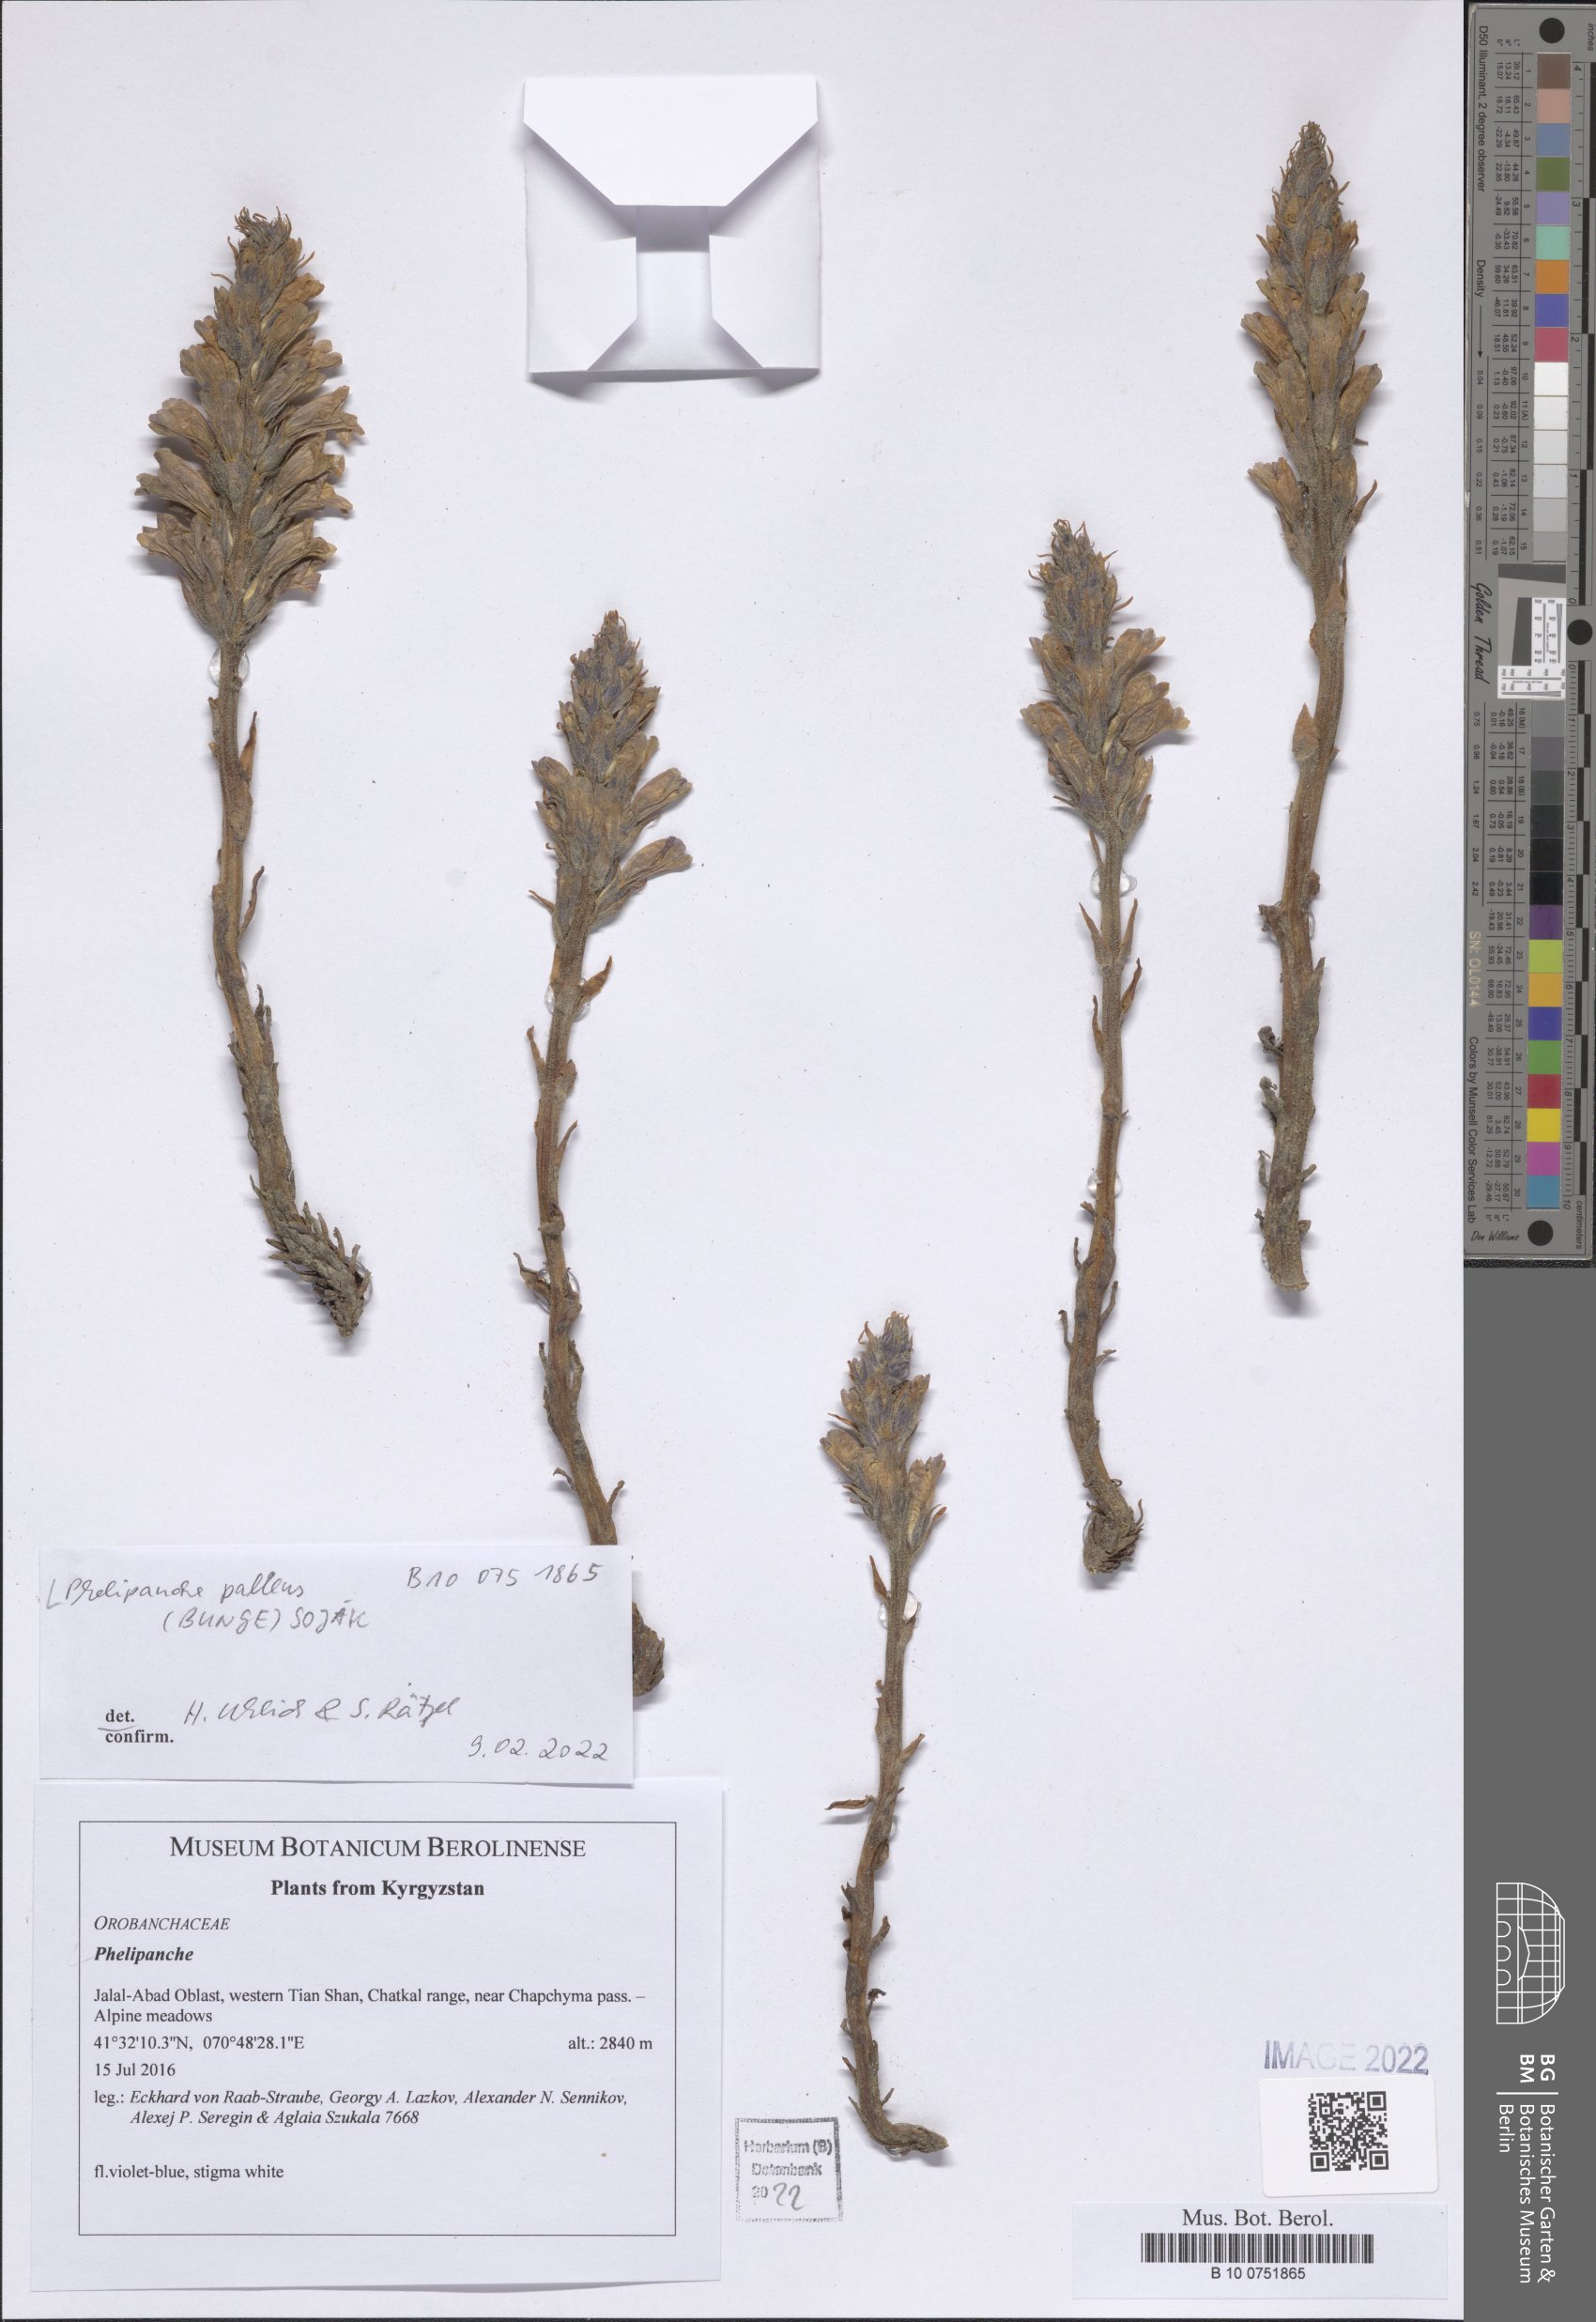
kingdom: Plantae
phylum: Tracheophyta
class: Magnoliopsida
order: Lamiales
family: Orobanchaceae
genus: Phelipanche
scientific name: Phelipanche pallens
